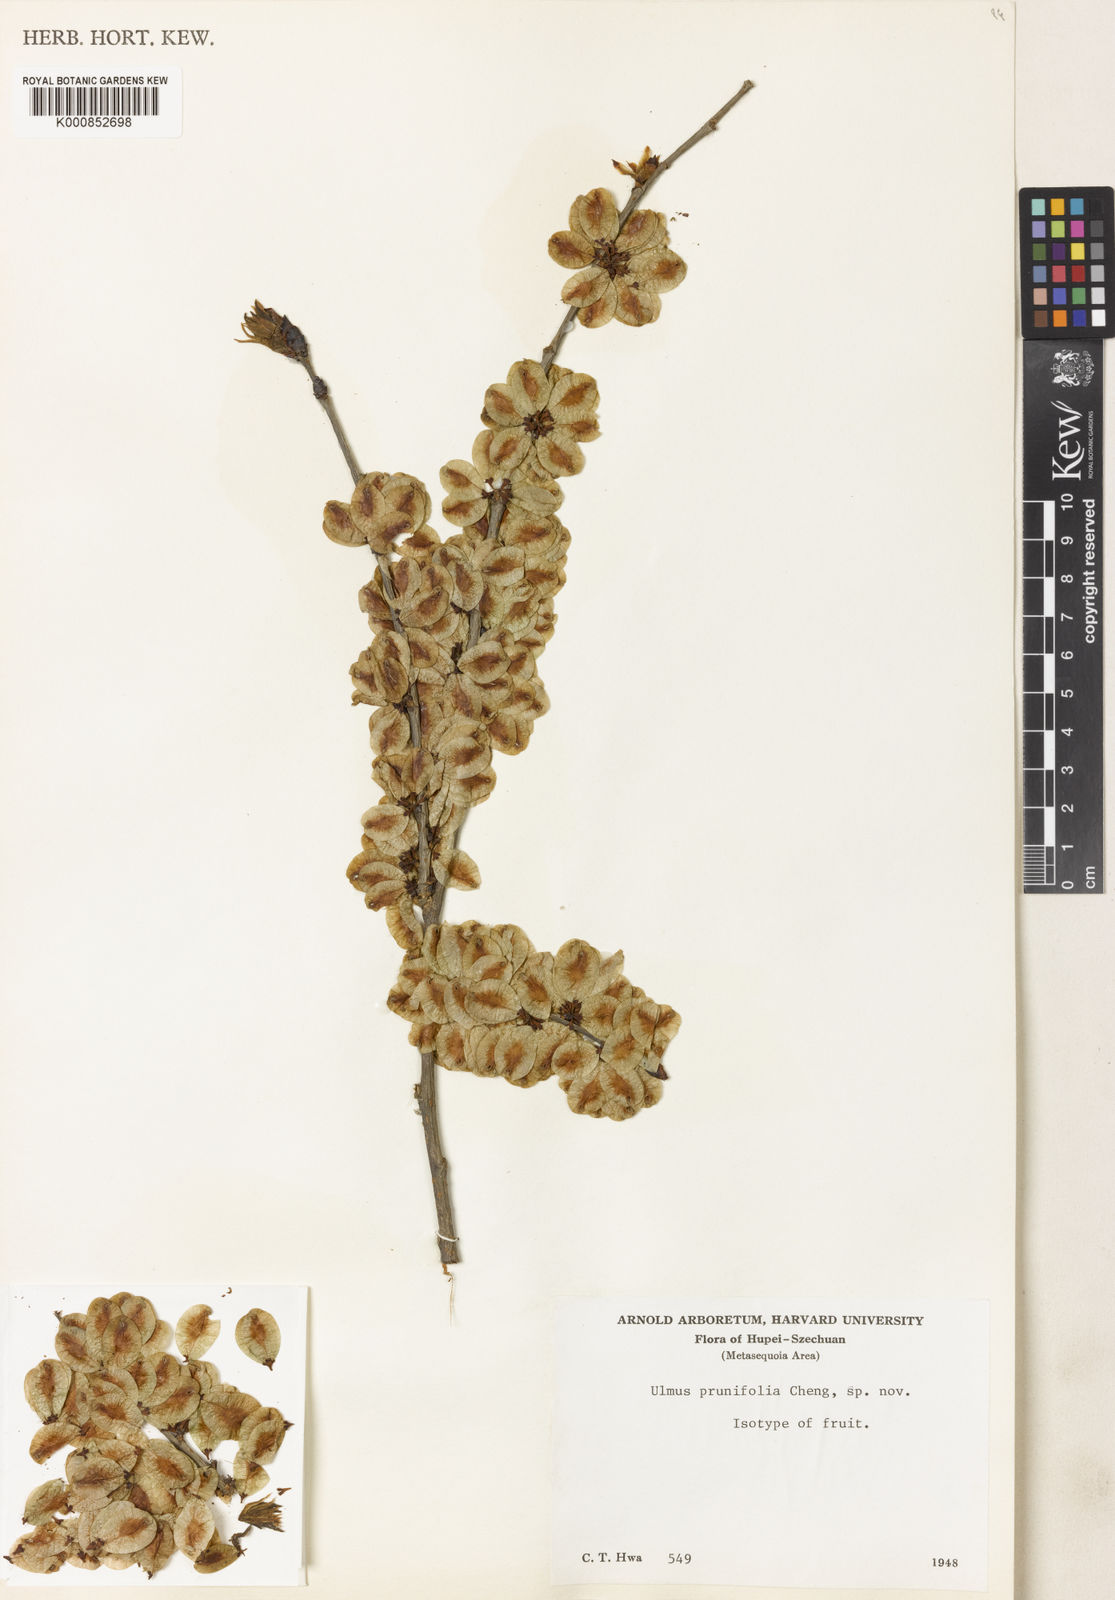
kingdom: Plantae
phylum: Tracheophyta
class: Magnoliopsida
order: Rosales
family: Ulmaceae
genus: Ulmus
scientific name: Ulmus prunifolia
